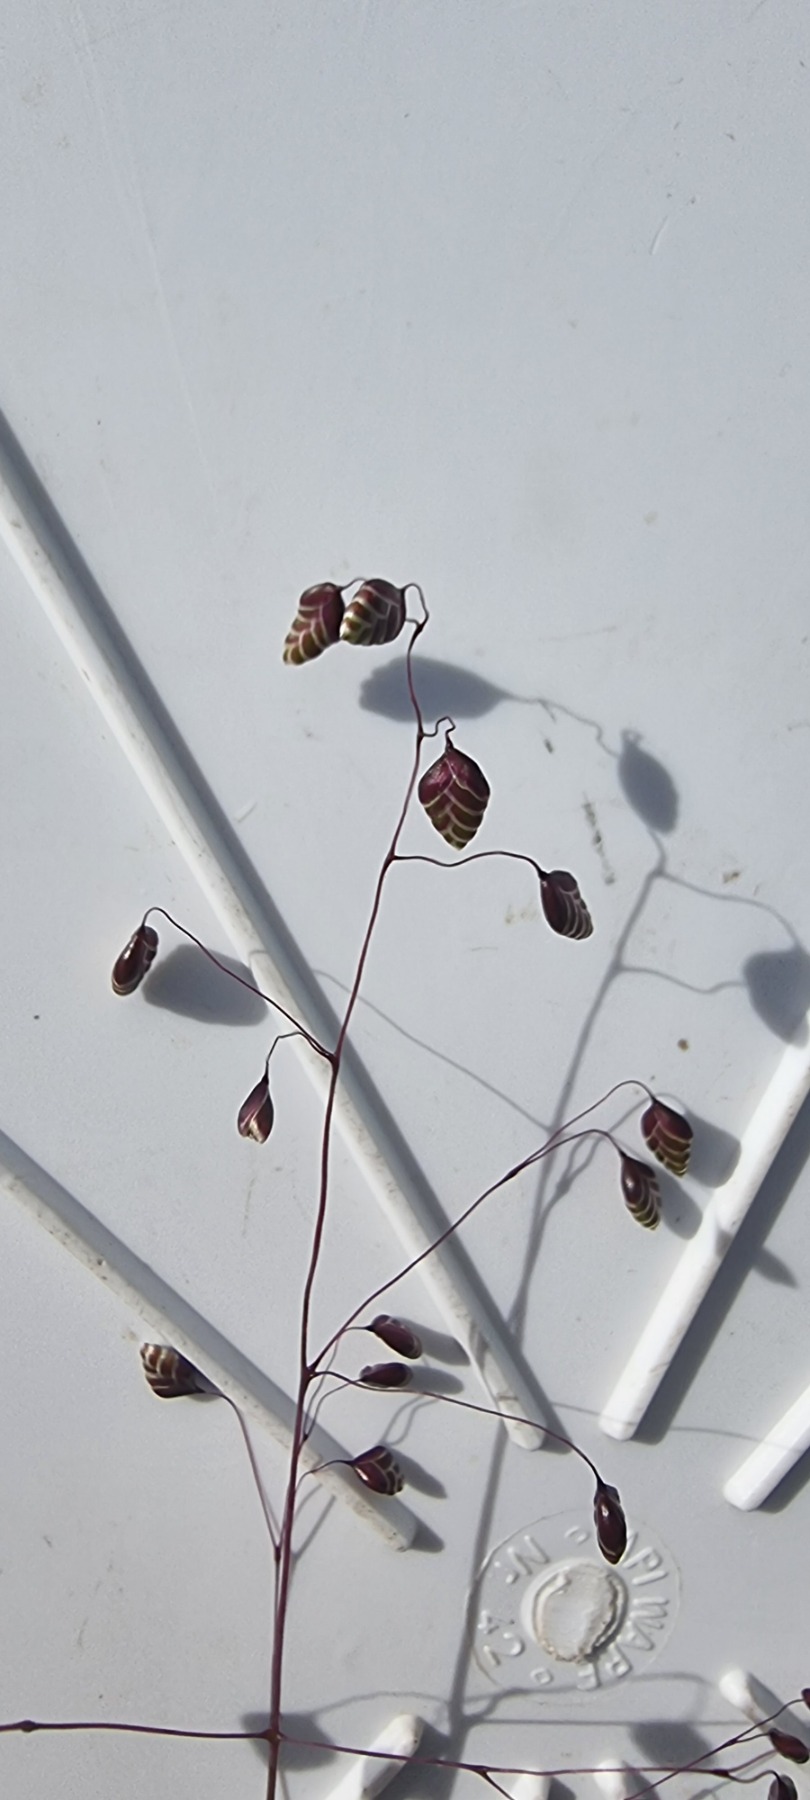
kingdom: Plantae
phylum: Tracheophyta
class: Liliopsida
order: Poales
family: Poaceae
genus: Briza
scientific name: Briza media
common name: Hjertegræs
